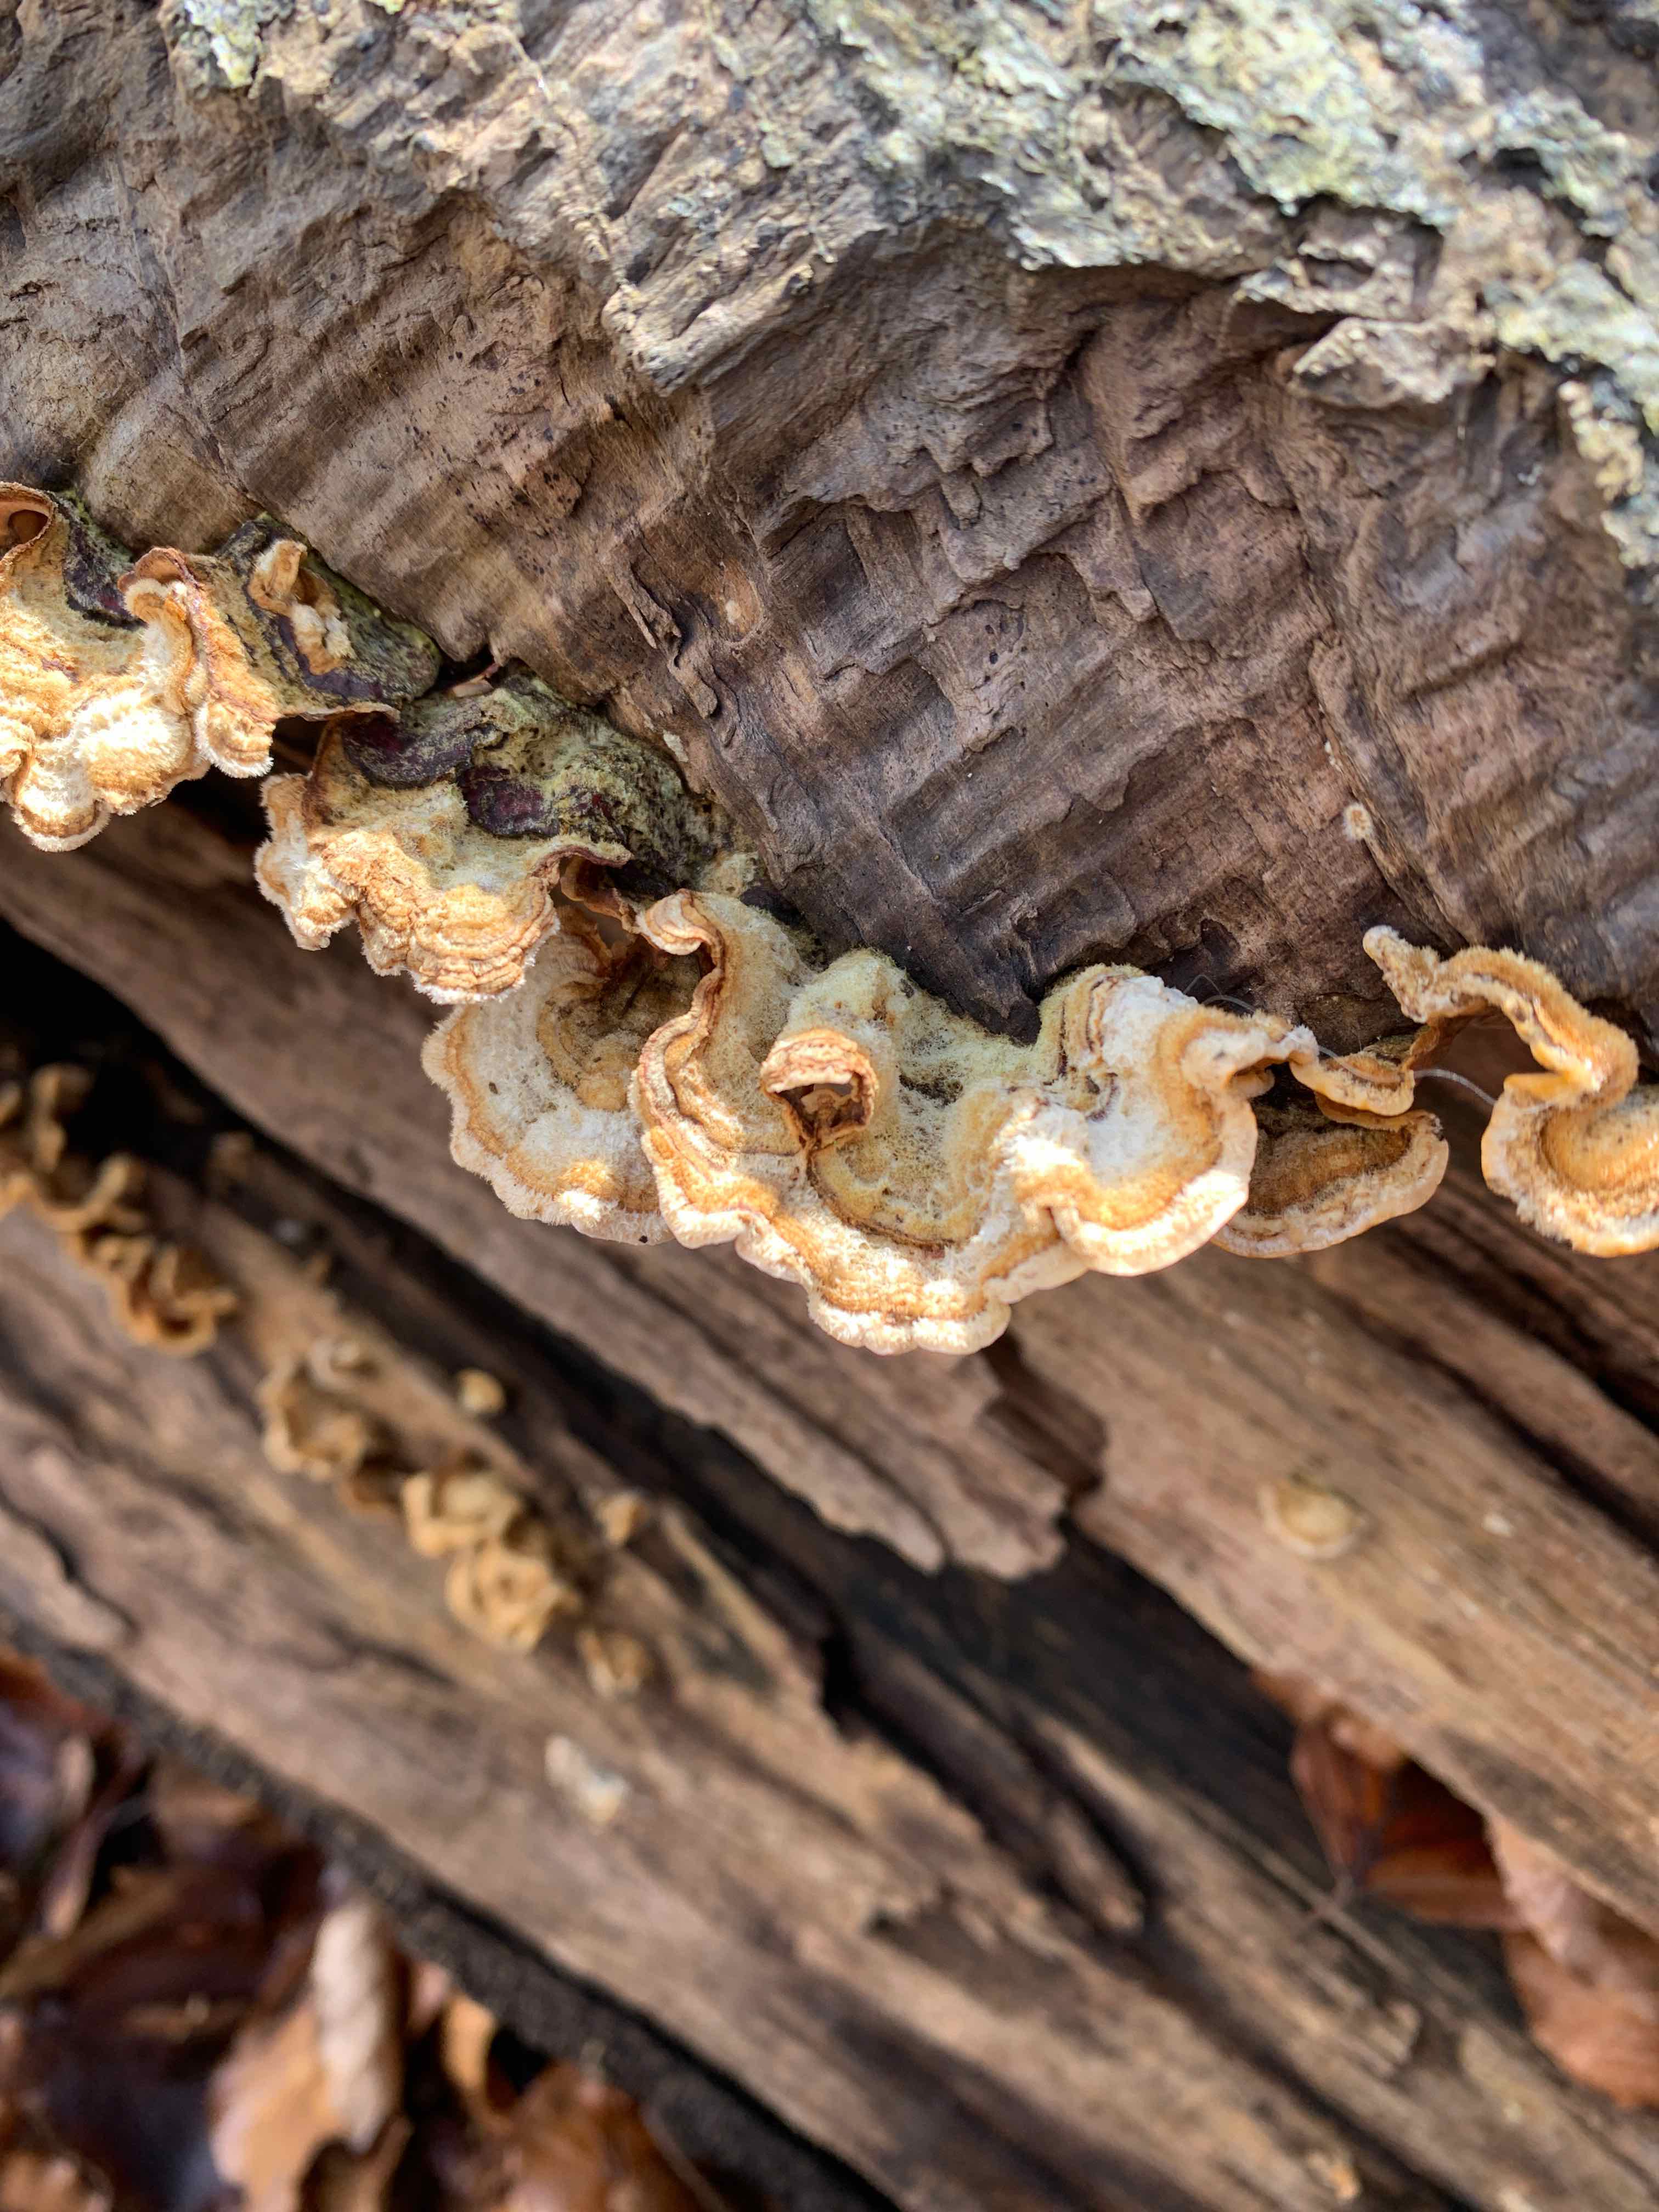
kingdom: Fungi
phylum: Basidiomycota
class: Agaricomycetes
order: Russulales
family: Stereaceae
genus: Stereum
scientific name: Stereum hirsutum
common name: håret lædersvamp
